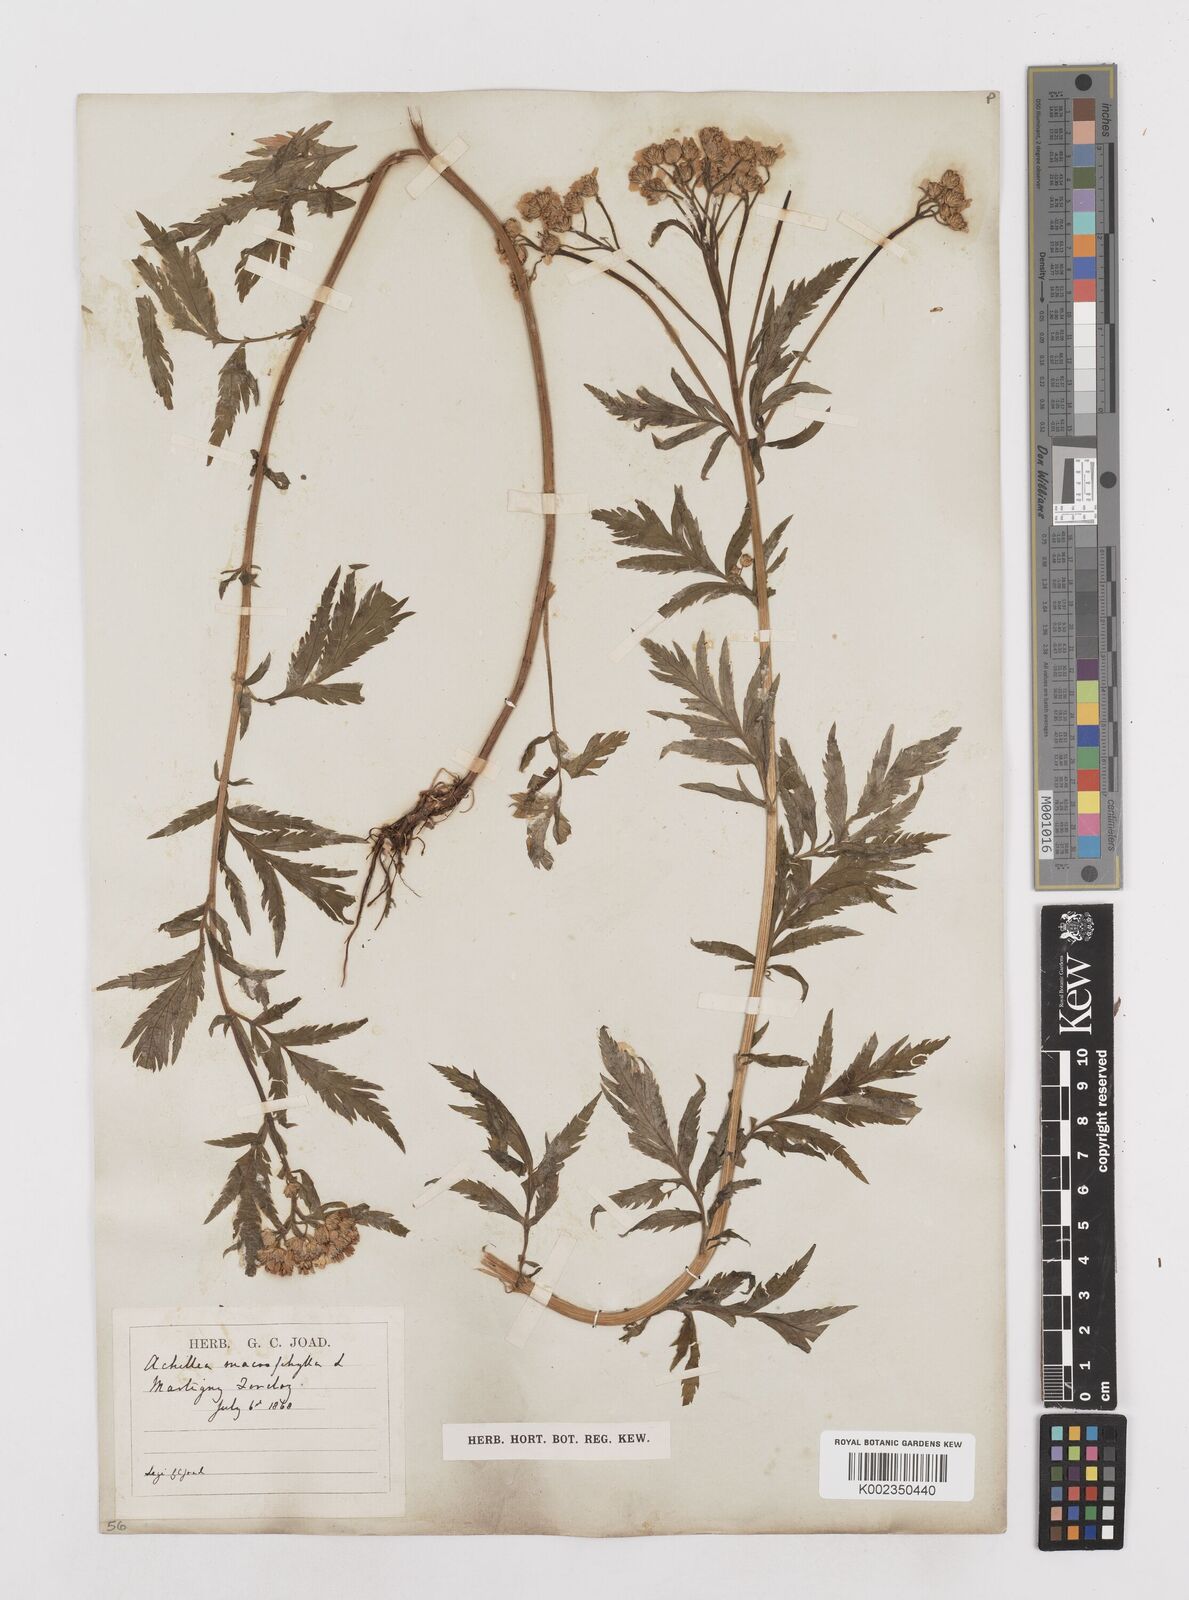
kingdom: Plantae
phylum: Tracheophyta
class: Magnoliopsida
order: Asterales
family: Asteraceae
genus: Achillea
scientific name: Achillea macrophylla
